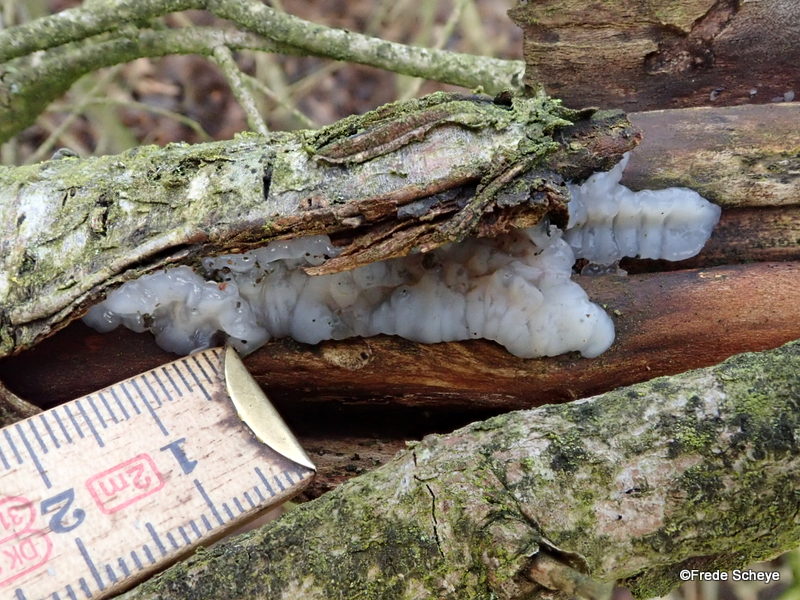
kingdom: Fungi
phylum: Basidiomycota
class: Agaricomycetes
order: Auriculariales
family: Auriculariaceae
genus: Exidia
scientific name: Exidia thuretiana
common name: hvidlig bævretop
